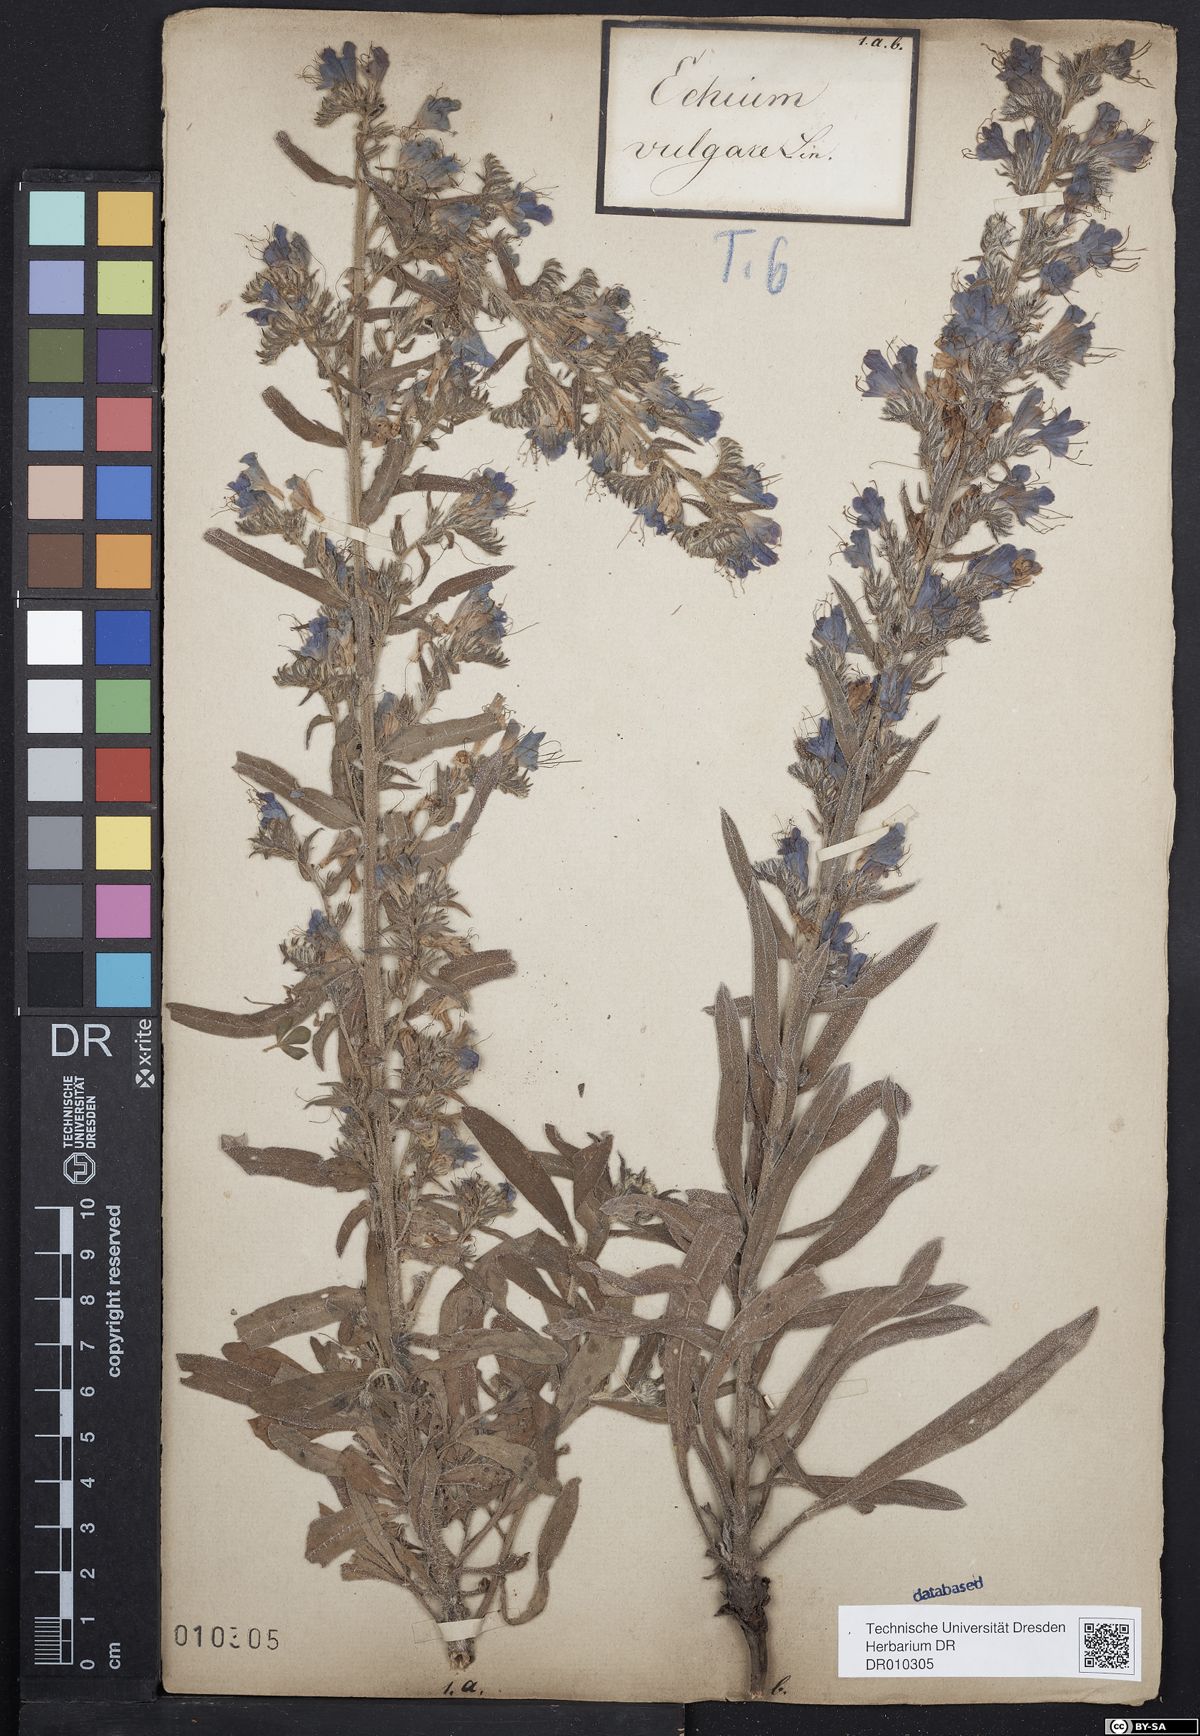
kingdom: Plantae
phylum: Tracheophyta
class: Magnoliopsida
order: Boraginales
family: Boraginaceae
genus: Echium
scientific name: Echium vulgare
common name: Common viper's bugloss
